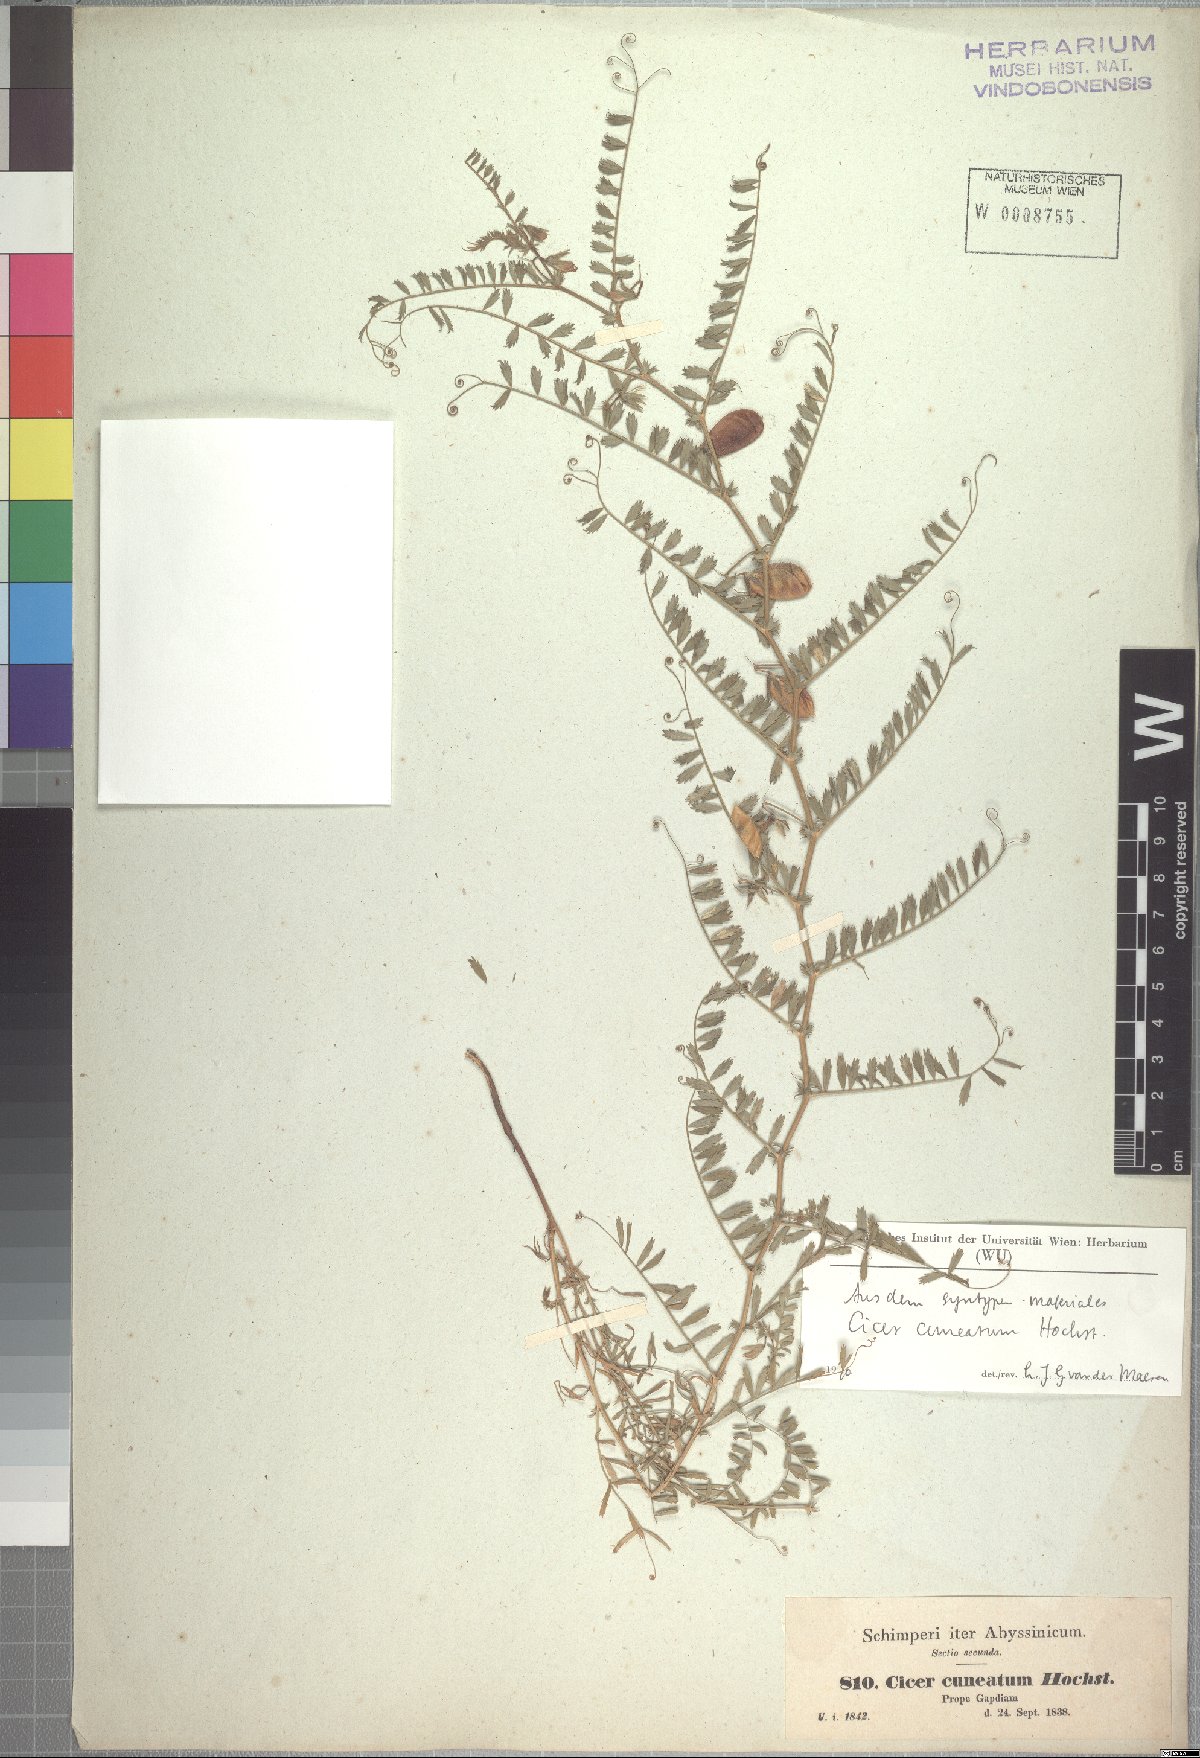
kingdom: Plantae
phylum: Tracheophyta
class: Magnoliopsida
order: Fabales
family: Fabaceae
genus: Cicer
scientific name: Cicer cuneatum
